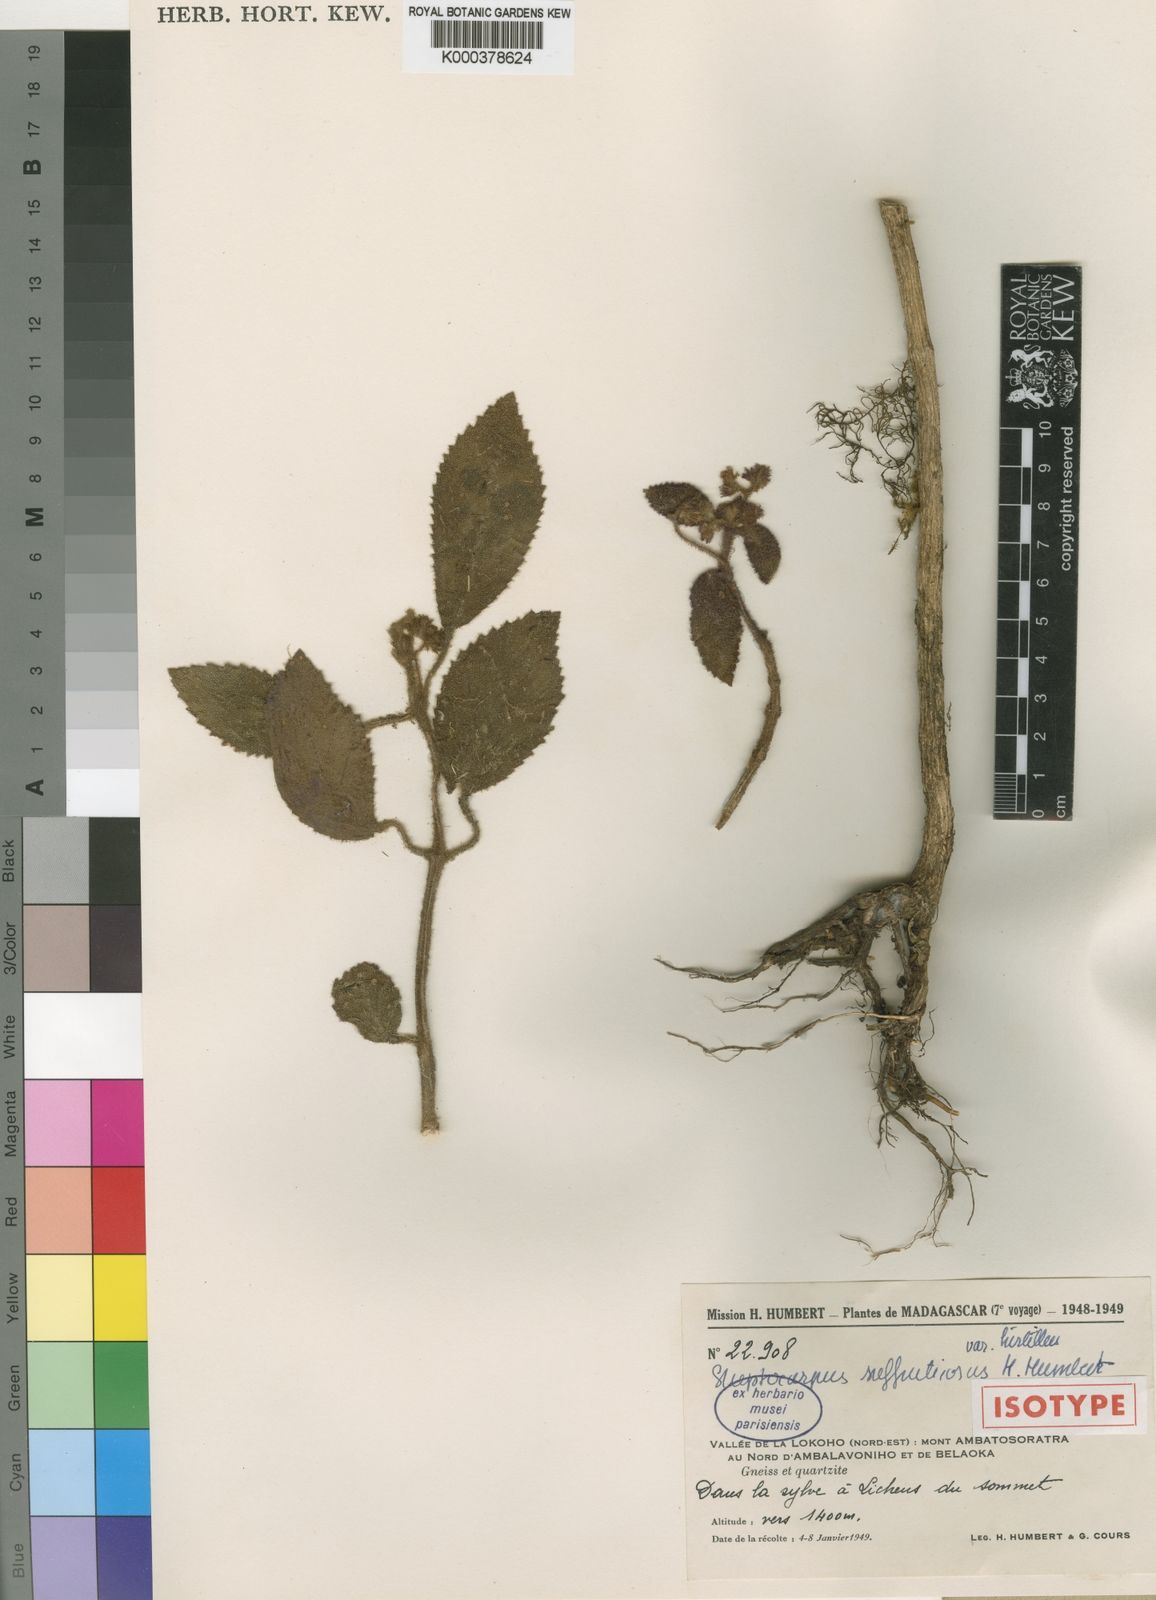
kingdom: Plantae
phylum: Tracheophyta
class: Magnoliopsida
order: Lamiales
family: Gesneriaceae
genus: Streptocarpus
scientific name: Streptocarpus suffruticosus
